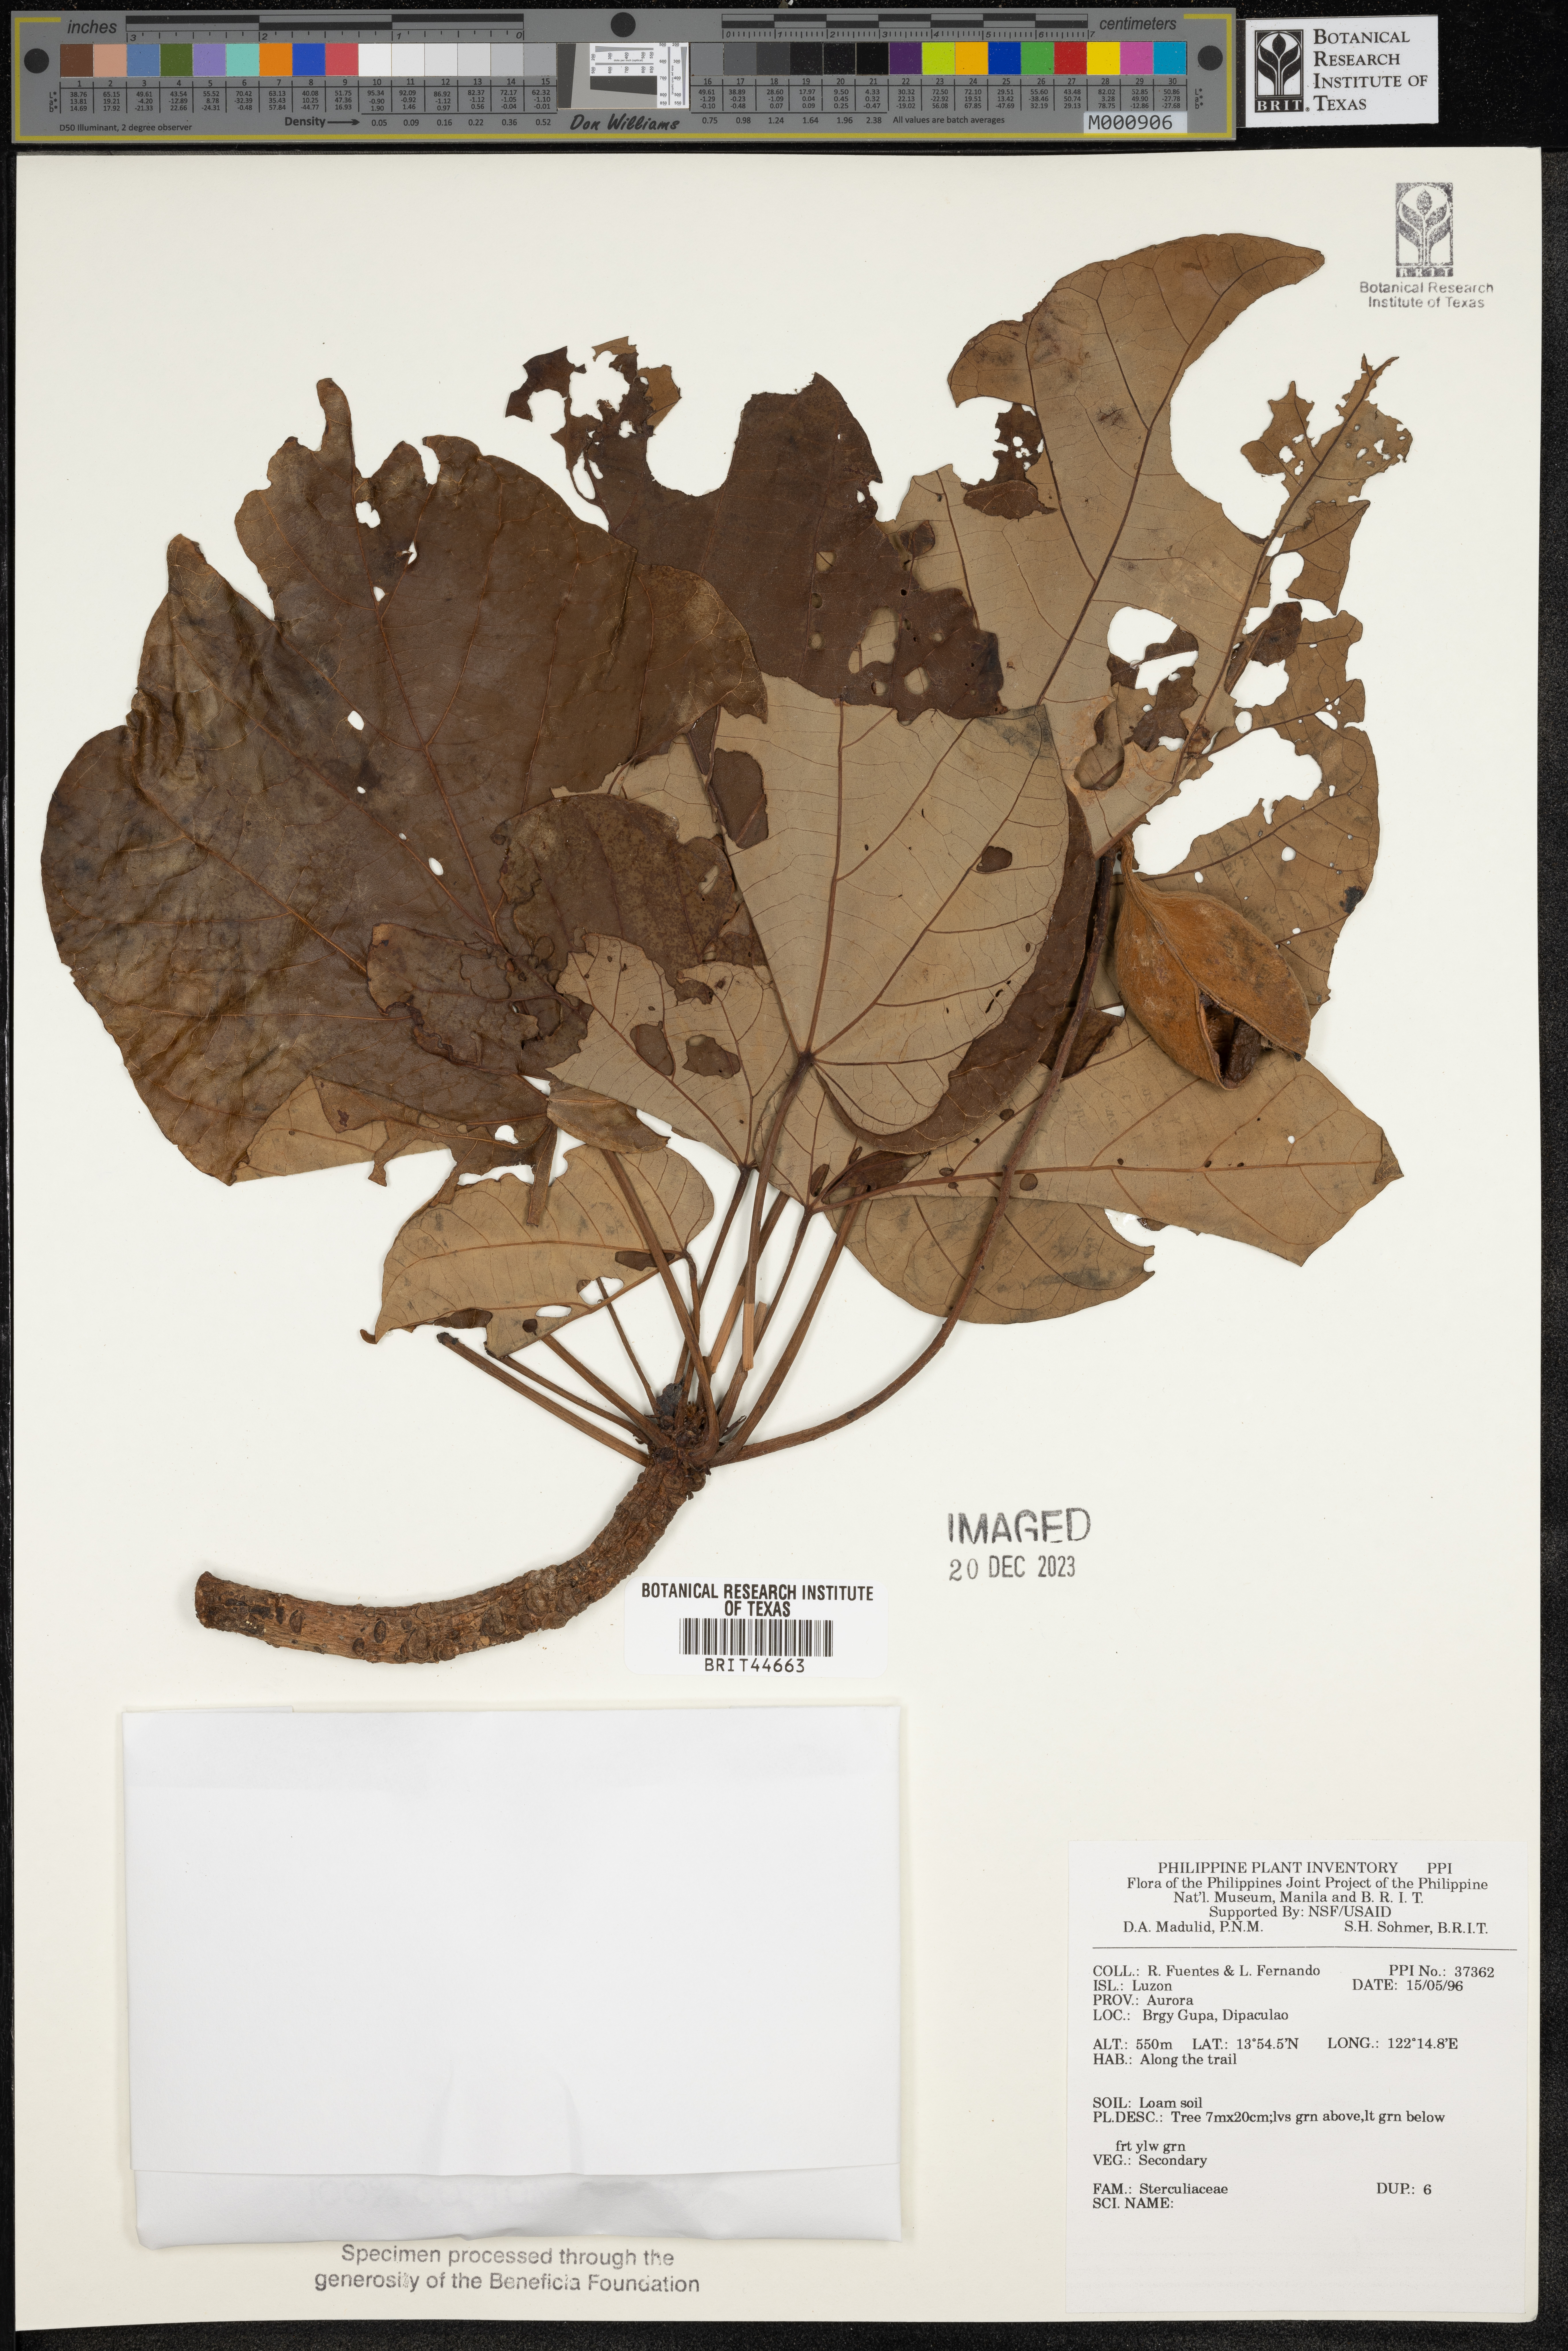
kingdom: Plantae
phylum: Tracheophyta
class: Magnoliopsida
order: Malvales
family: Sterculiaceae
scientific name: Sterculiaceae
